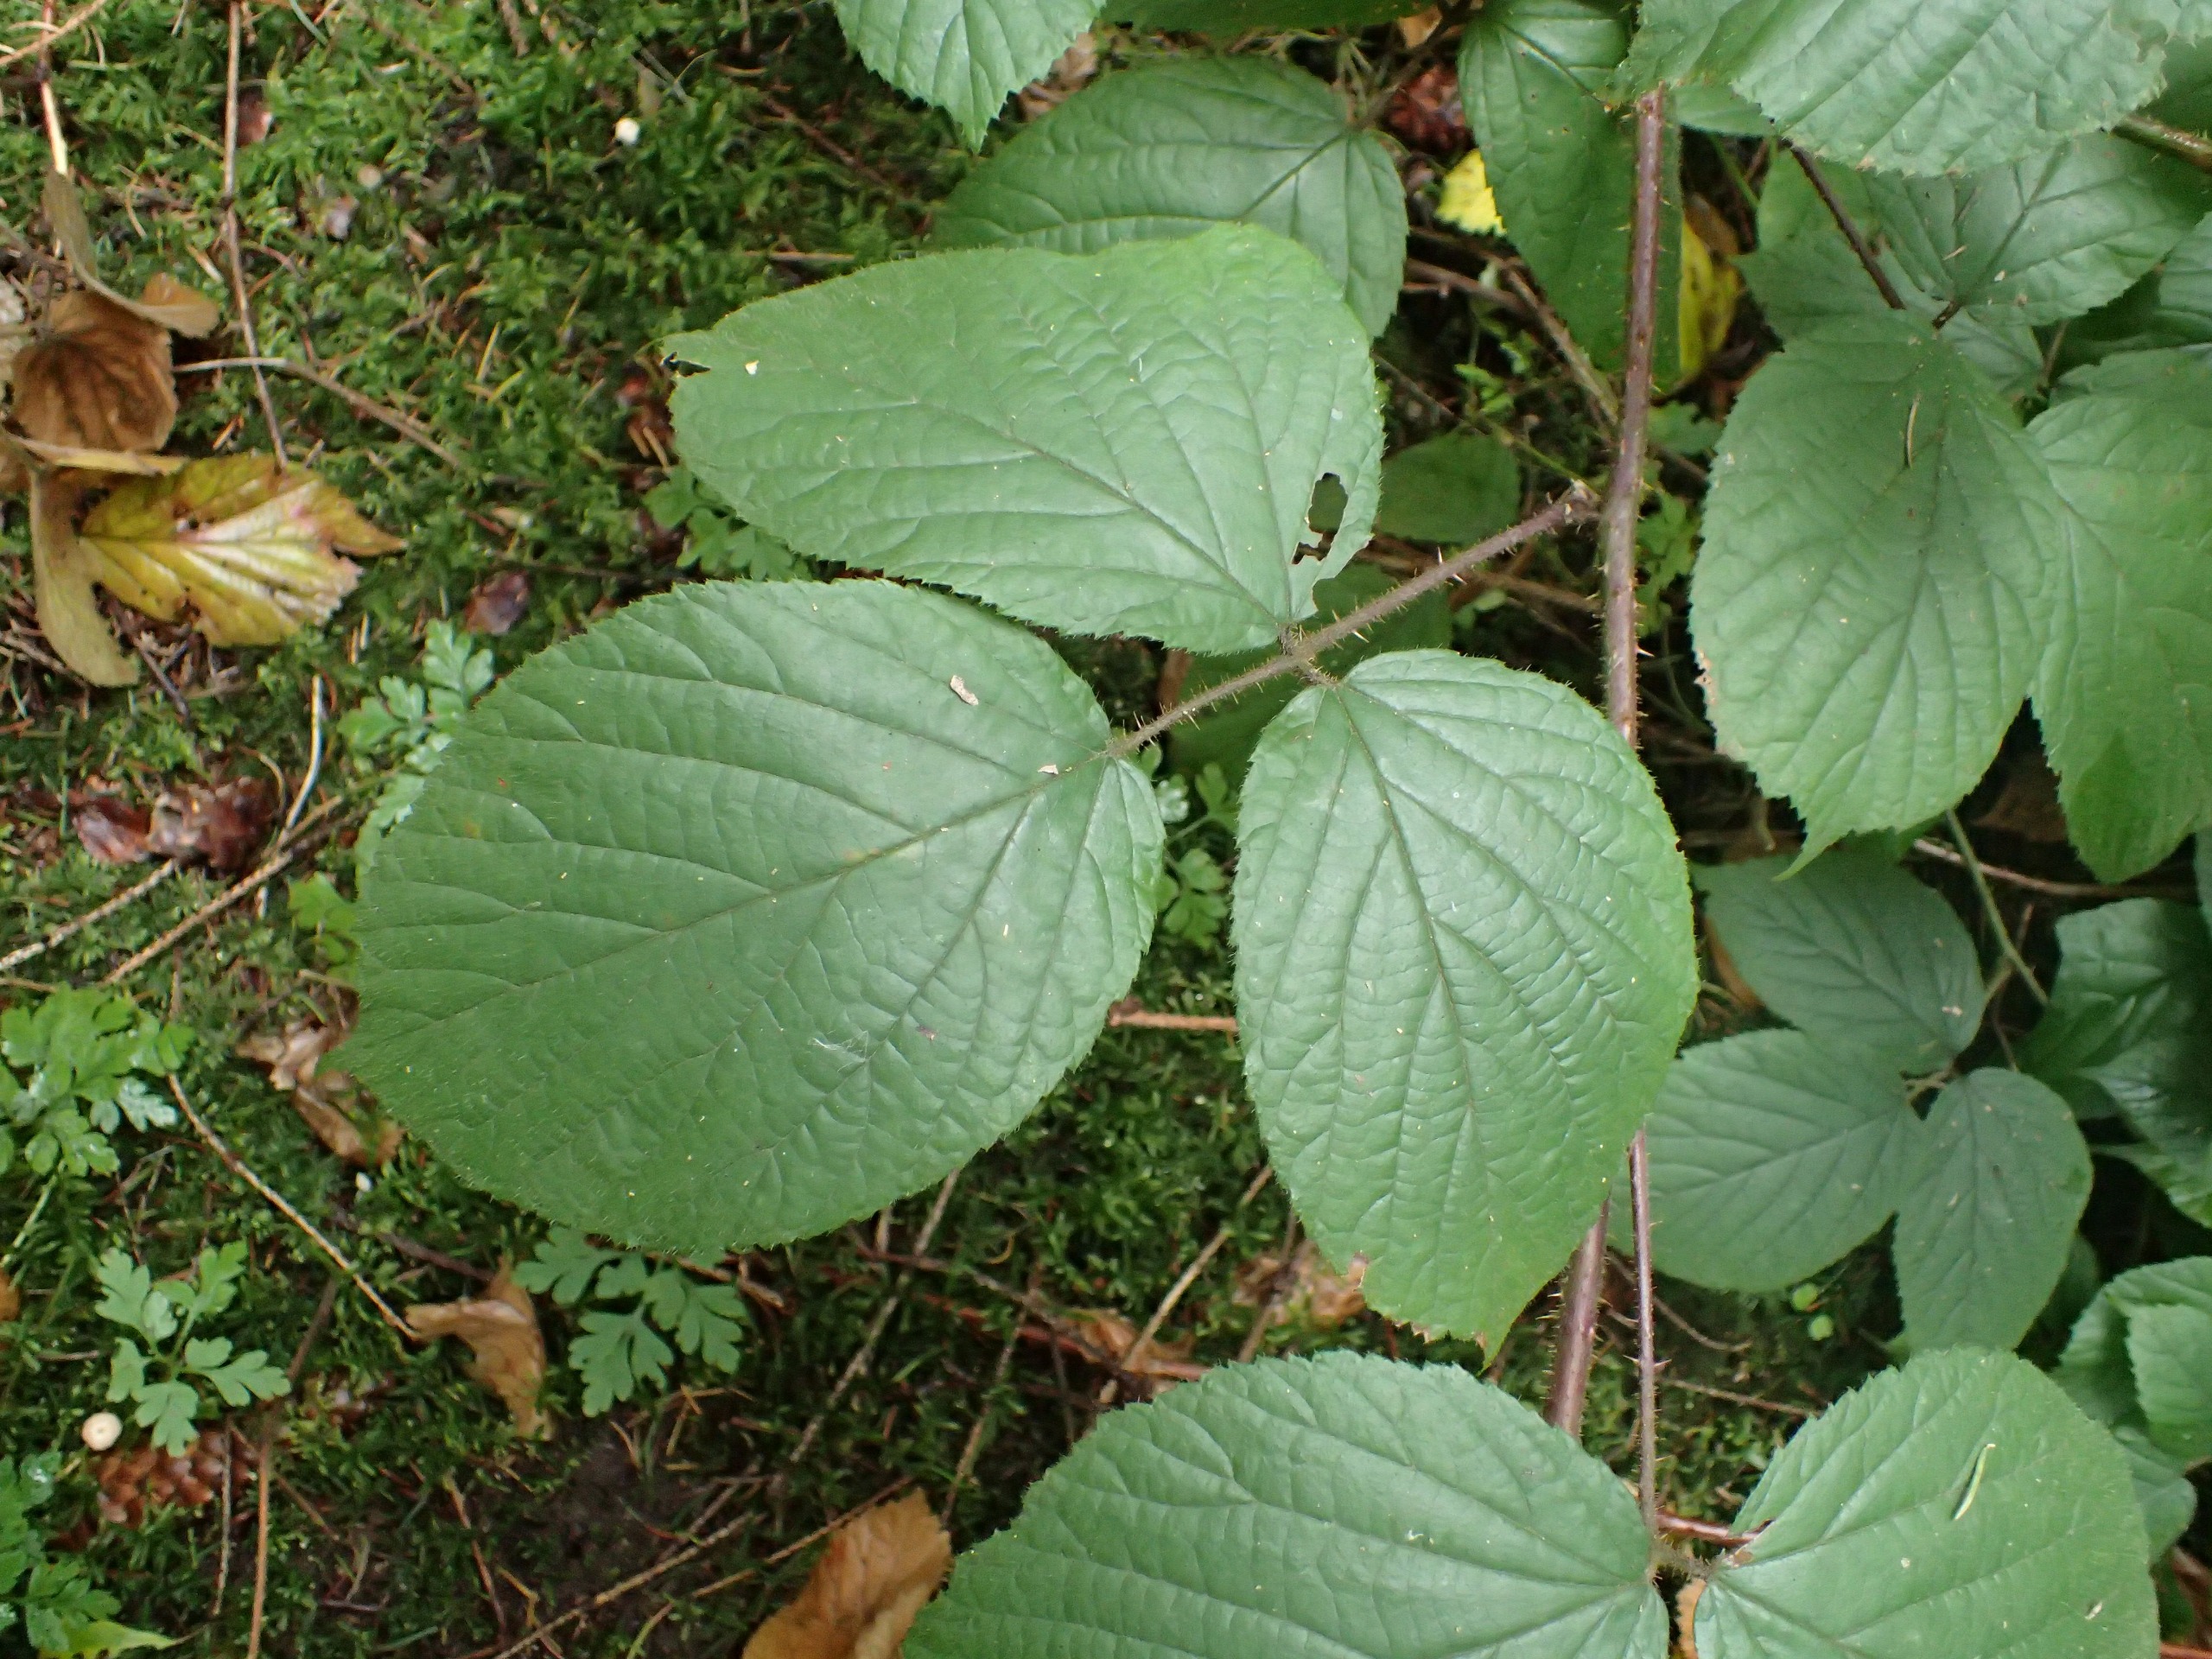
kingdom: Plantae
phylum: Tracheophyta
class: Magnoliopsida
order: Rosales
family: Rosaceae
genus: Rubus
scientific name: Rubus nigricans
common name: Trebladet brombær
